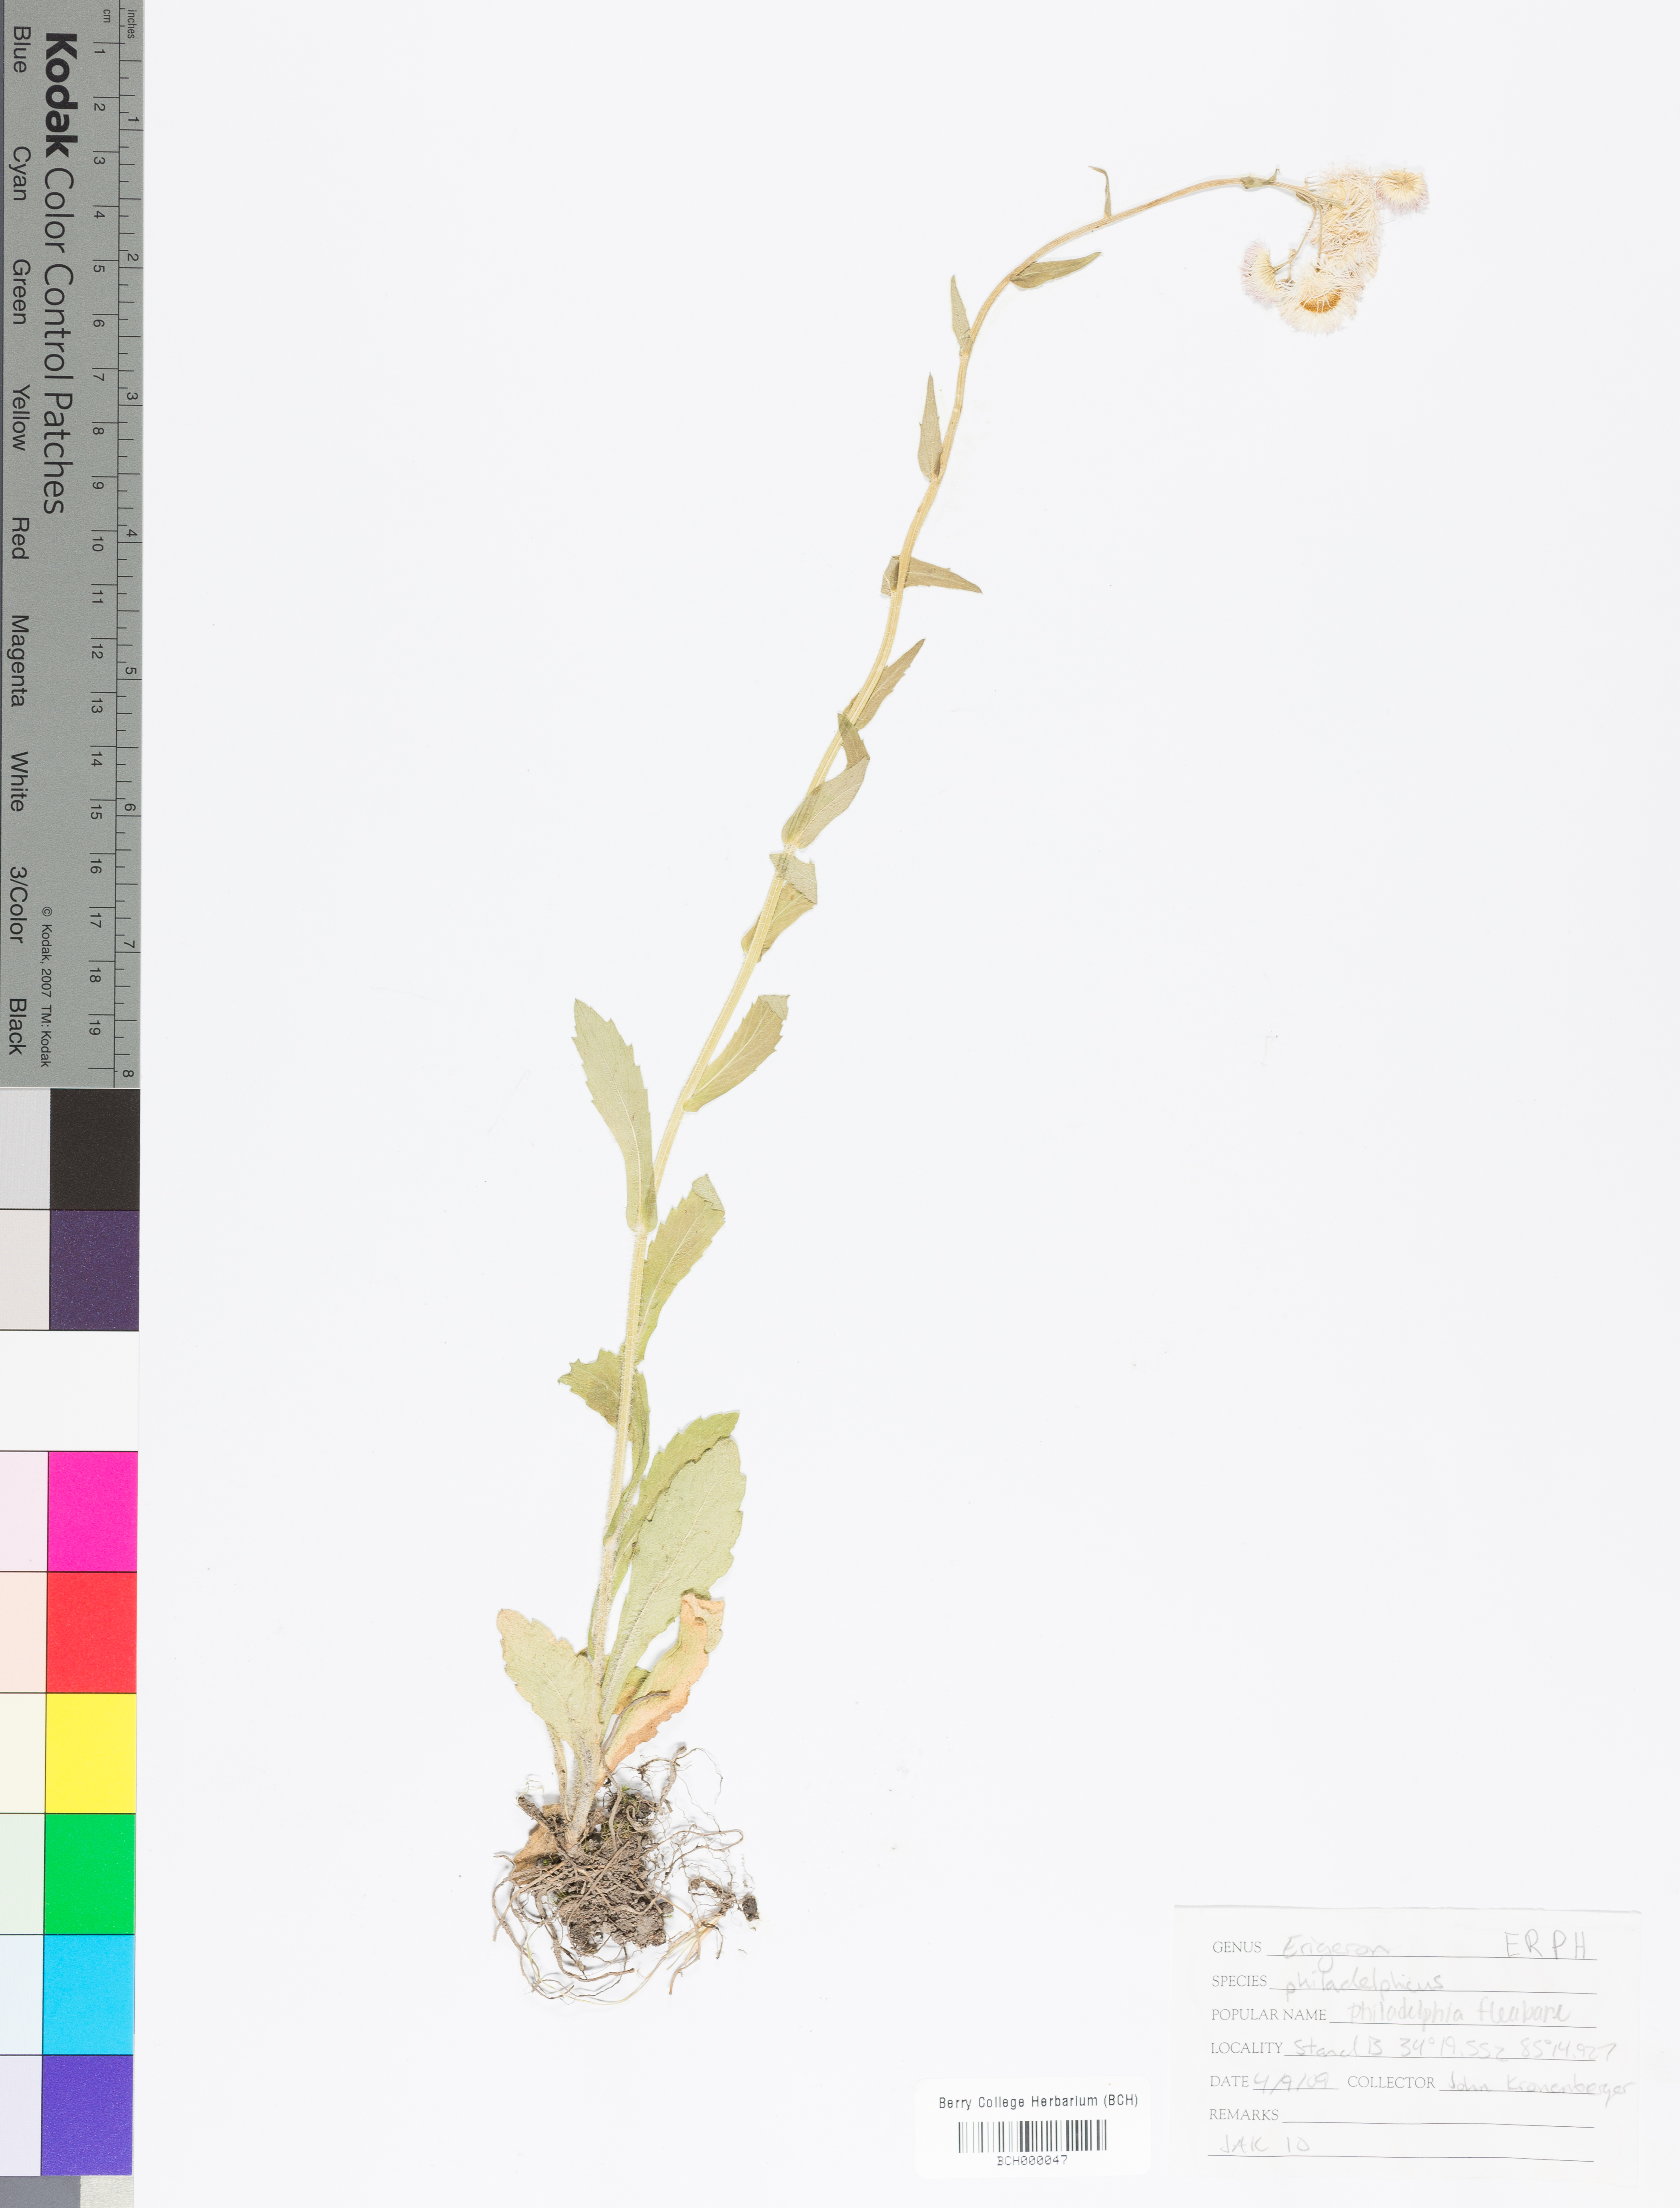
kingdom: Plantae
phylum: Tracheophyta
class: Magnoliopsida
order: Asterales
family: Asteraceae
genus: Erigeron
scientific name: Erigeron philadelphicus
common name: Robin's-plantain
